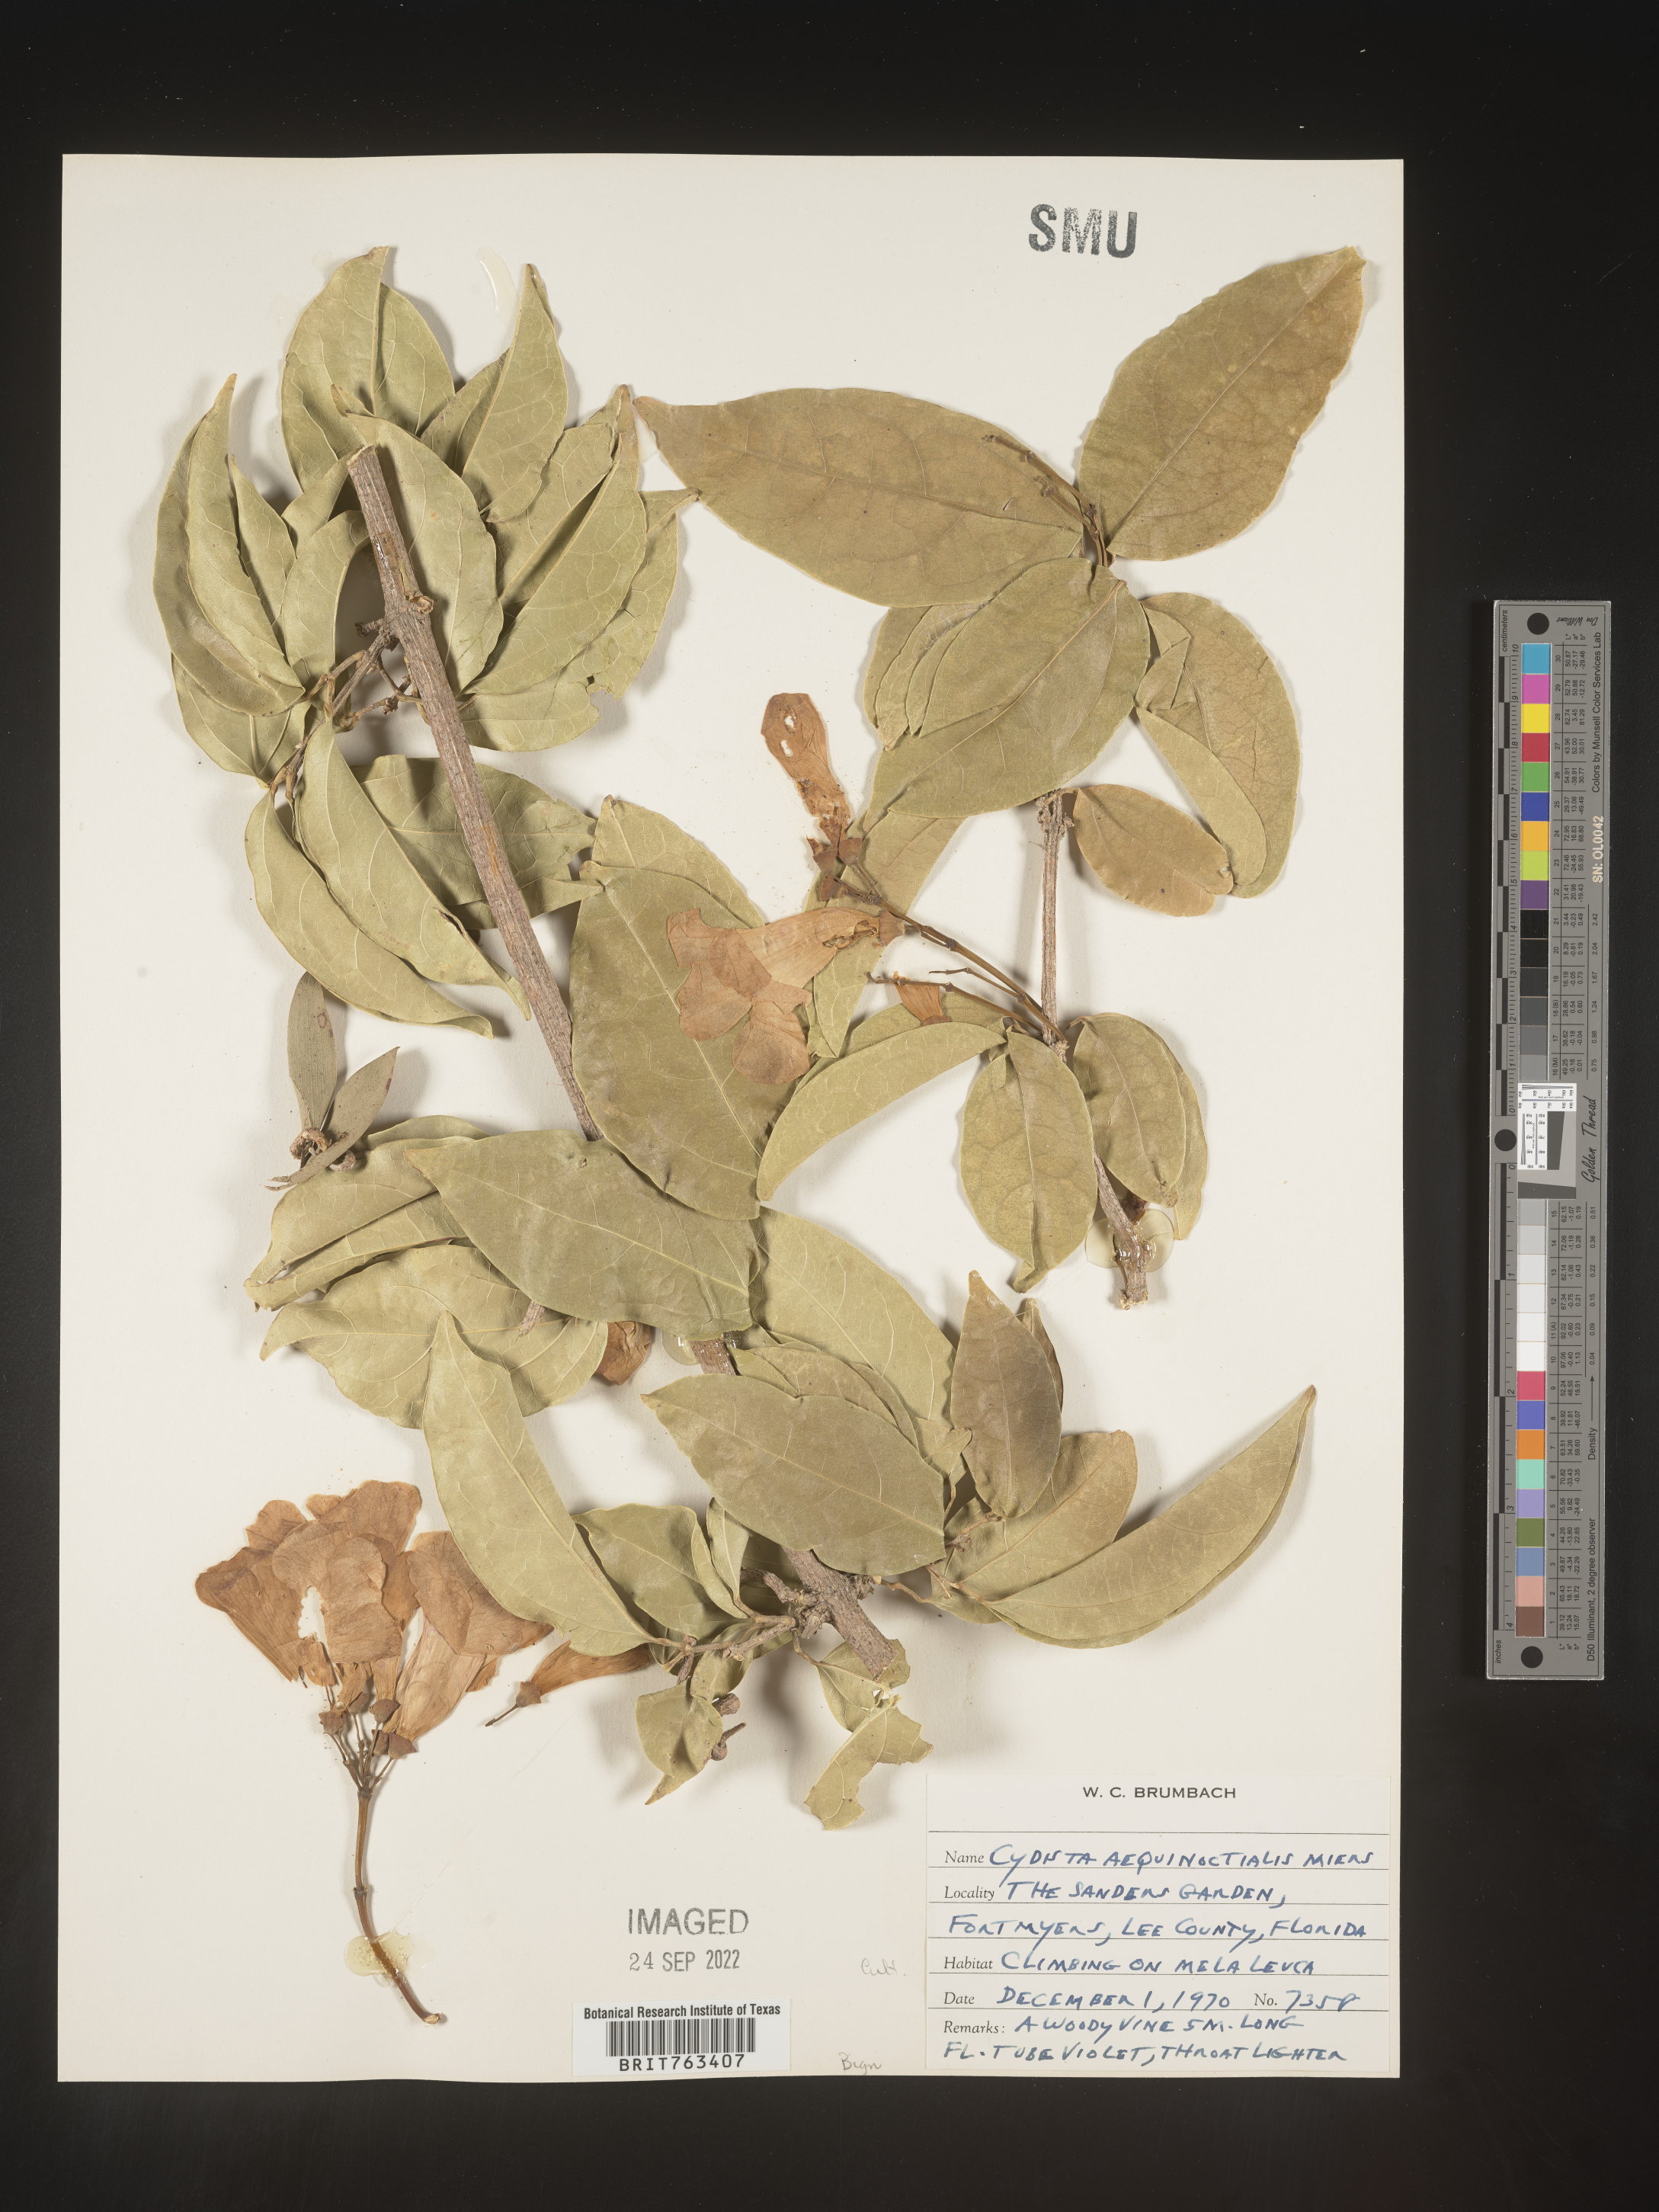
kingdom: Plantae
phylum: Tracheophyta
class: Magnoliopsida
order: Lamiales
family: Bignoniaceae
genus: Bignonia
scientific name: Bignonia
